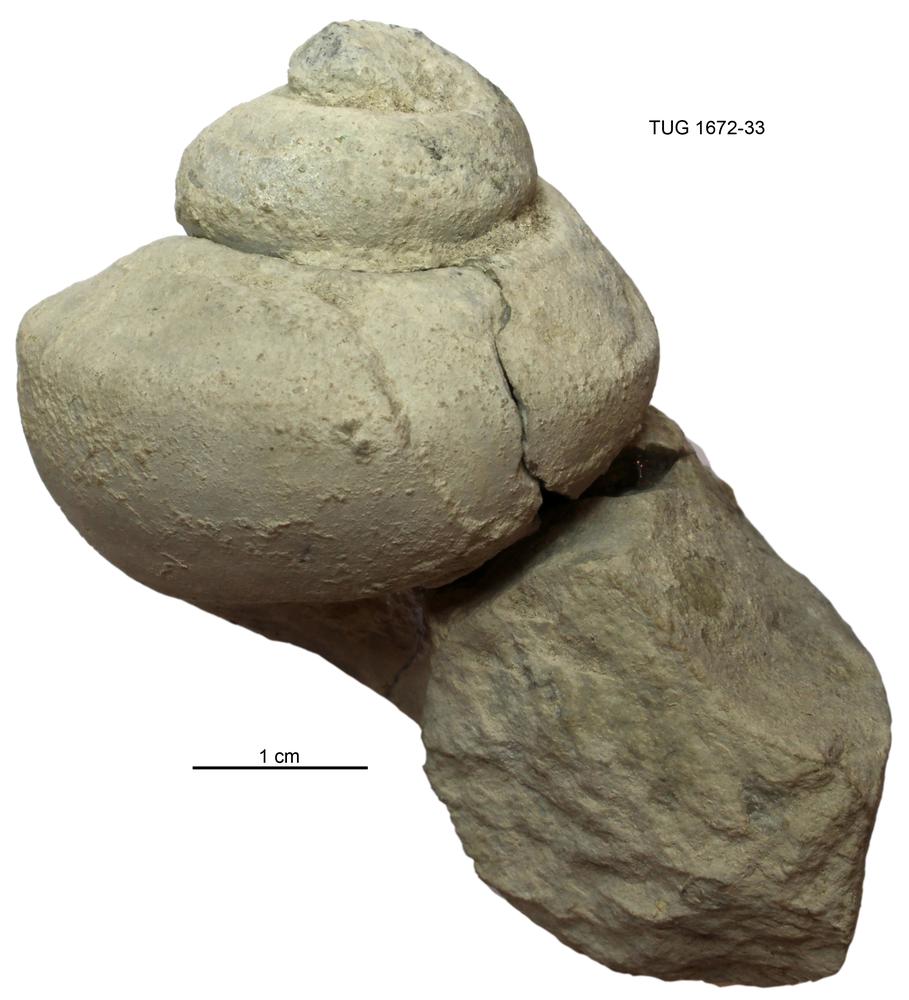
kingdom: Animalia
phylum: Mollusca
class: Gastropoda
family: Lophospiridae
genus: Lophospira
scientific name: Lophospira lyckholmiensis
